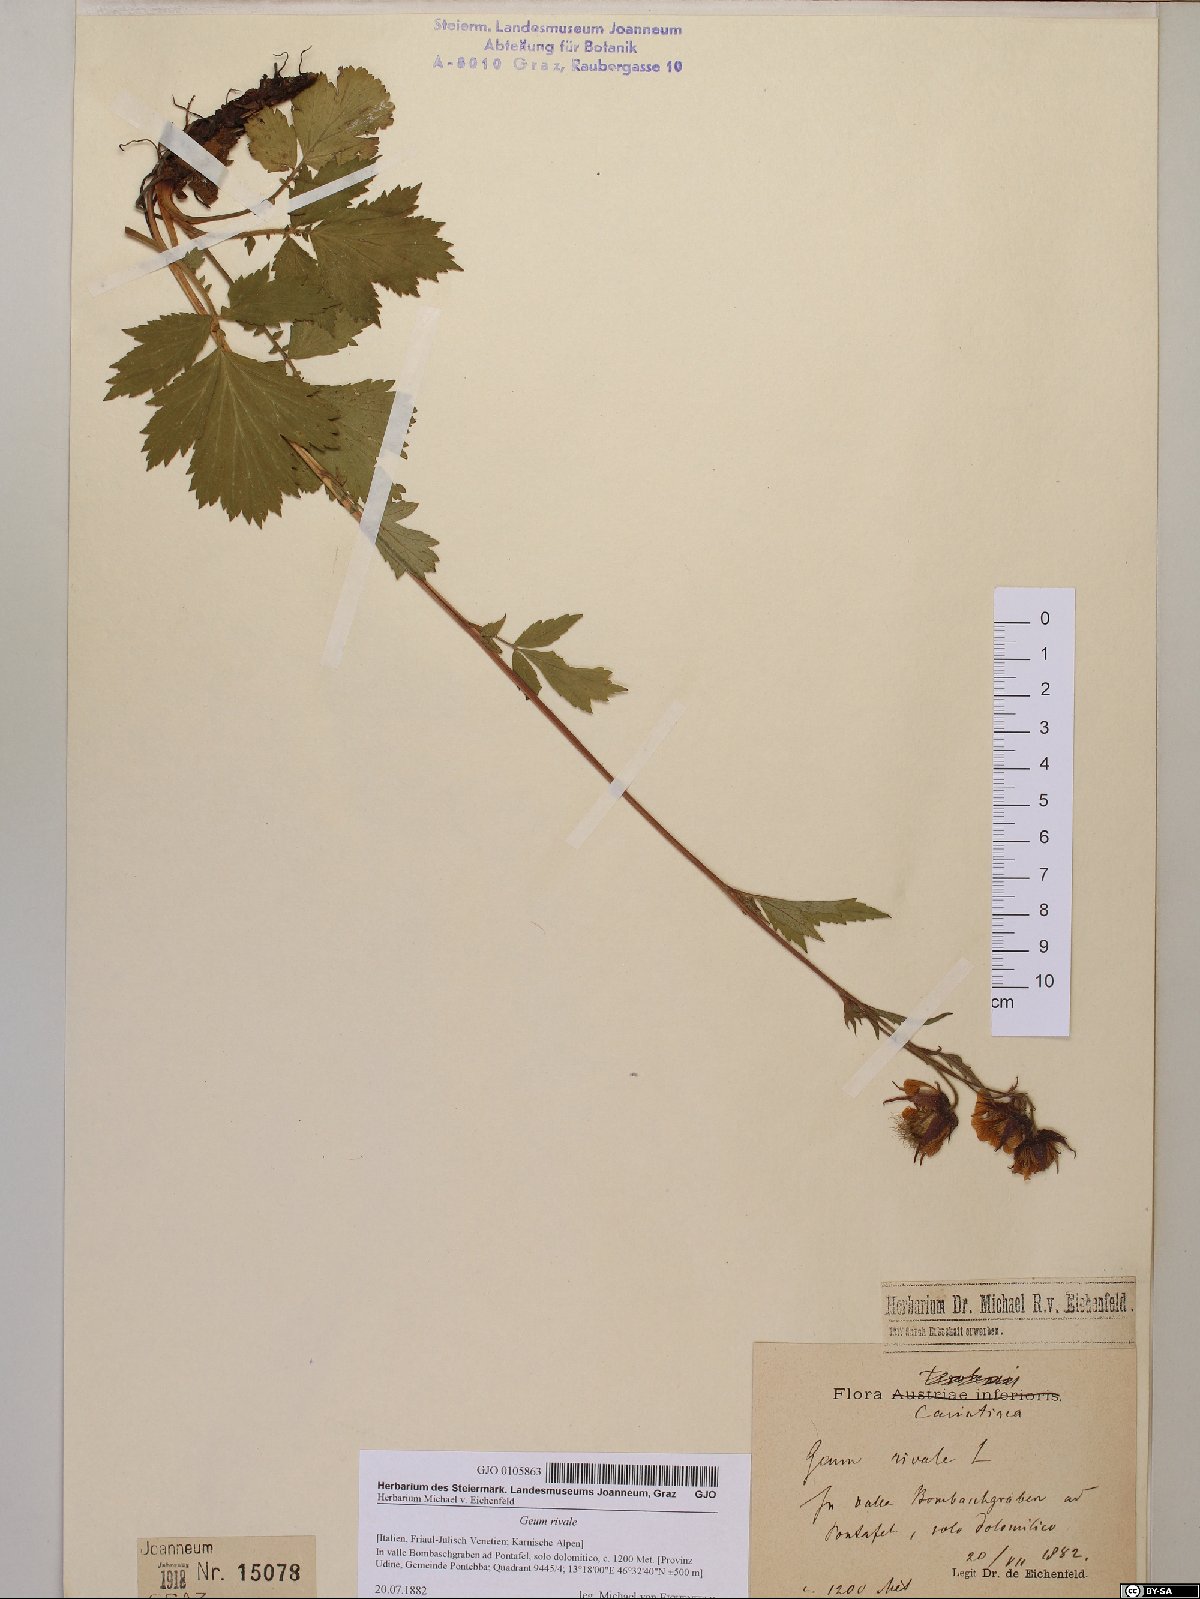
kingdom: Plantae
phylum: Tracheophyta
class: Magnoliopsida
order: Rosales
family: Rosaceae
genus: Geum
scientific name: Geum rivale
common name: Water avens
